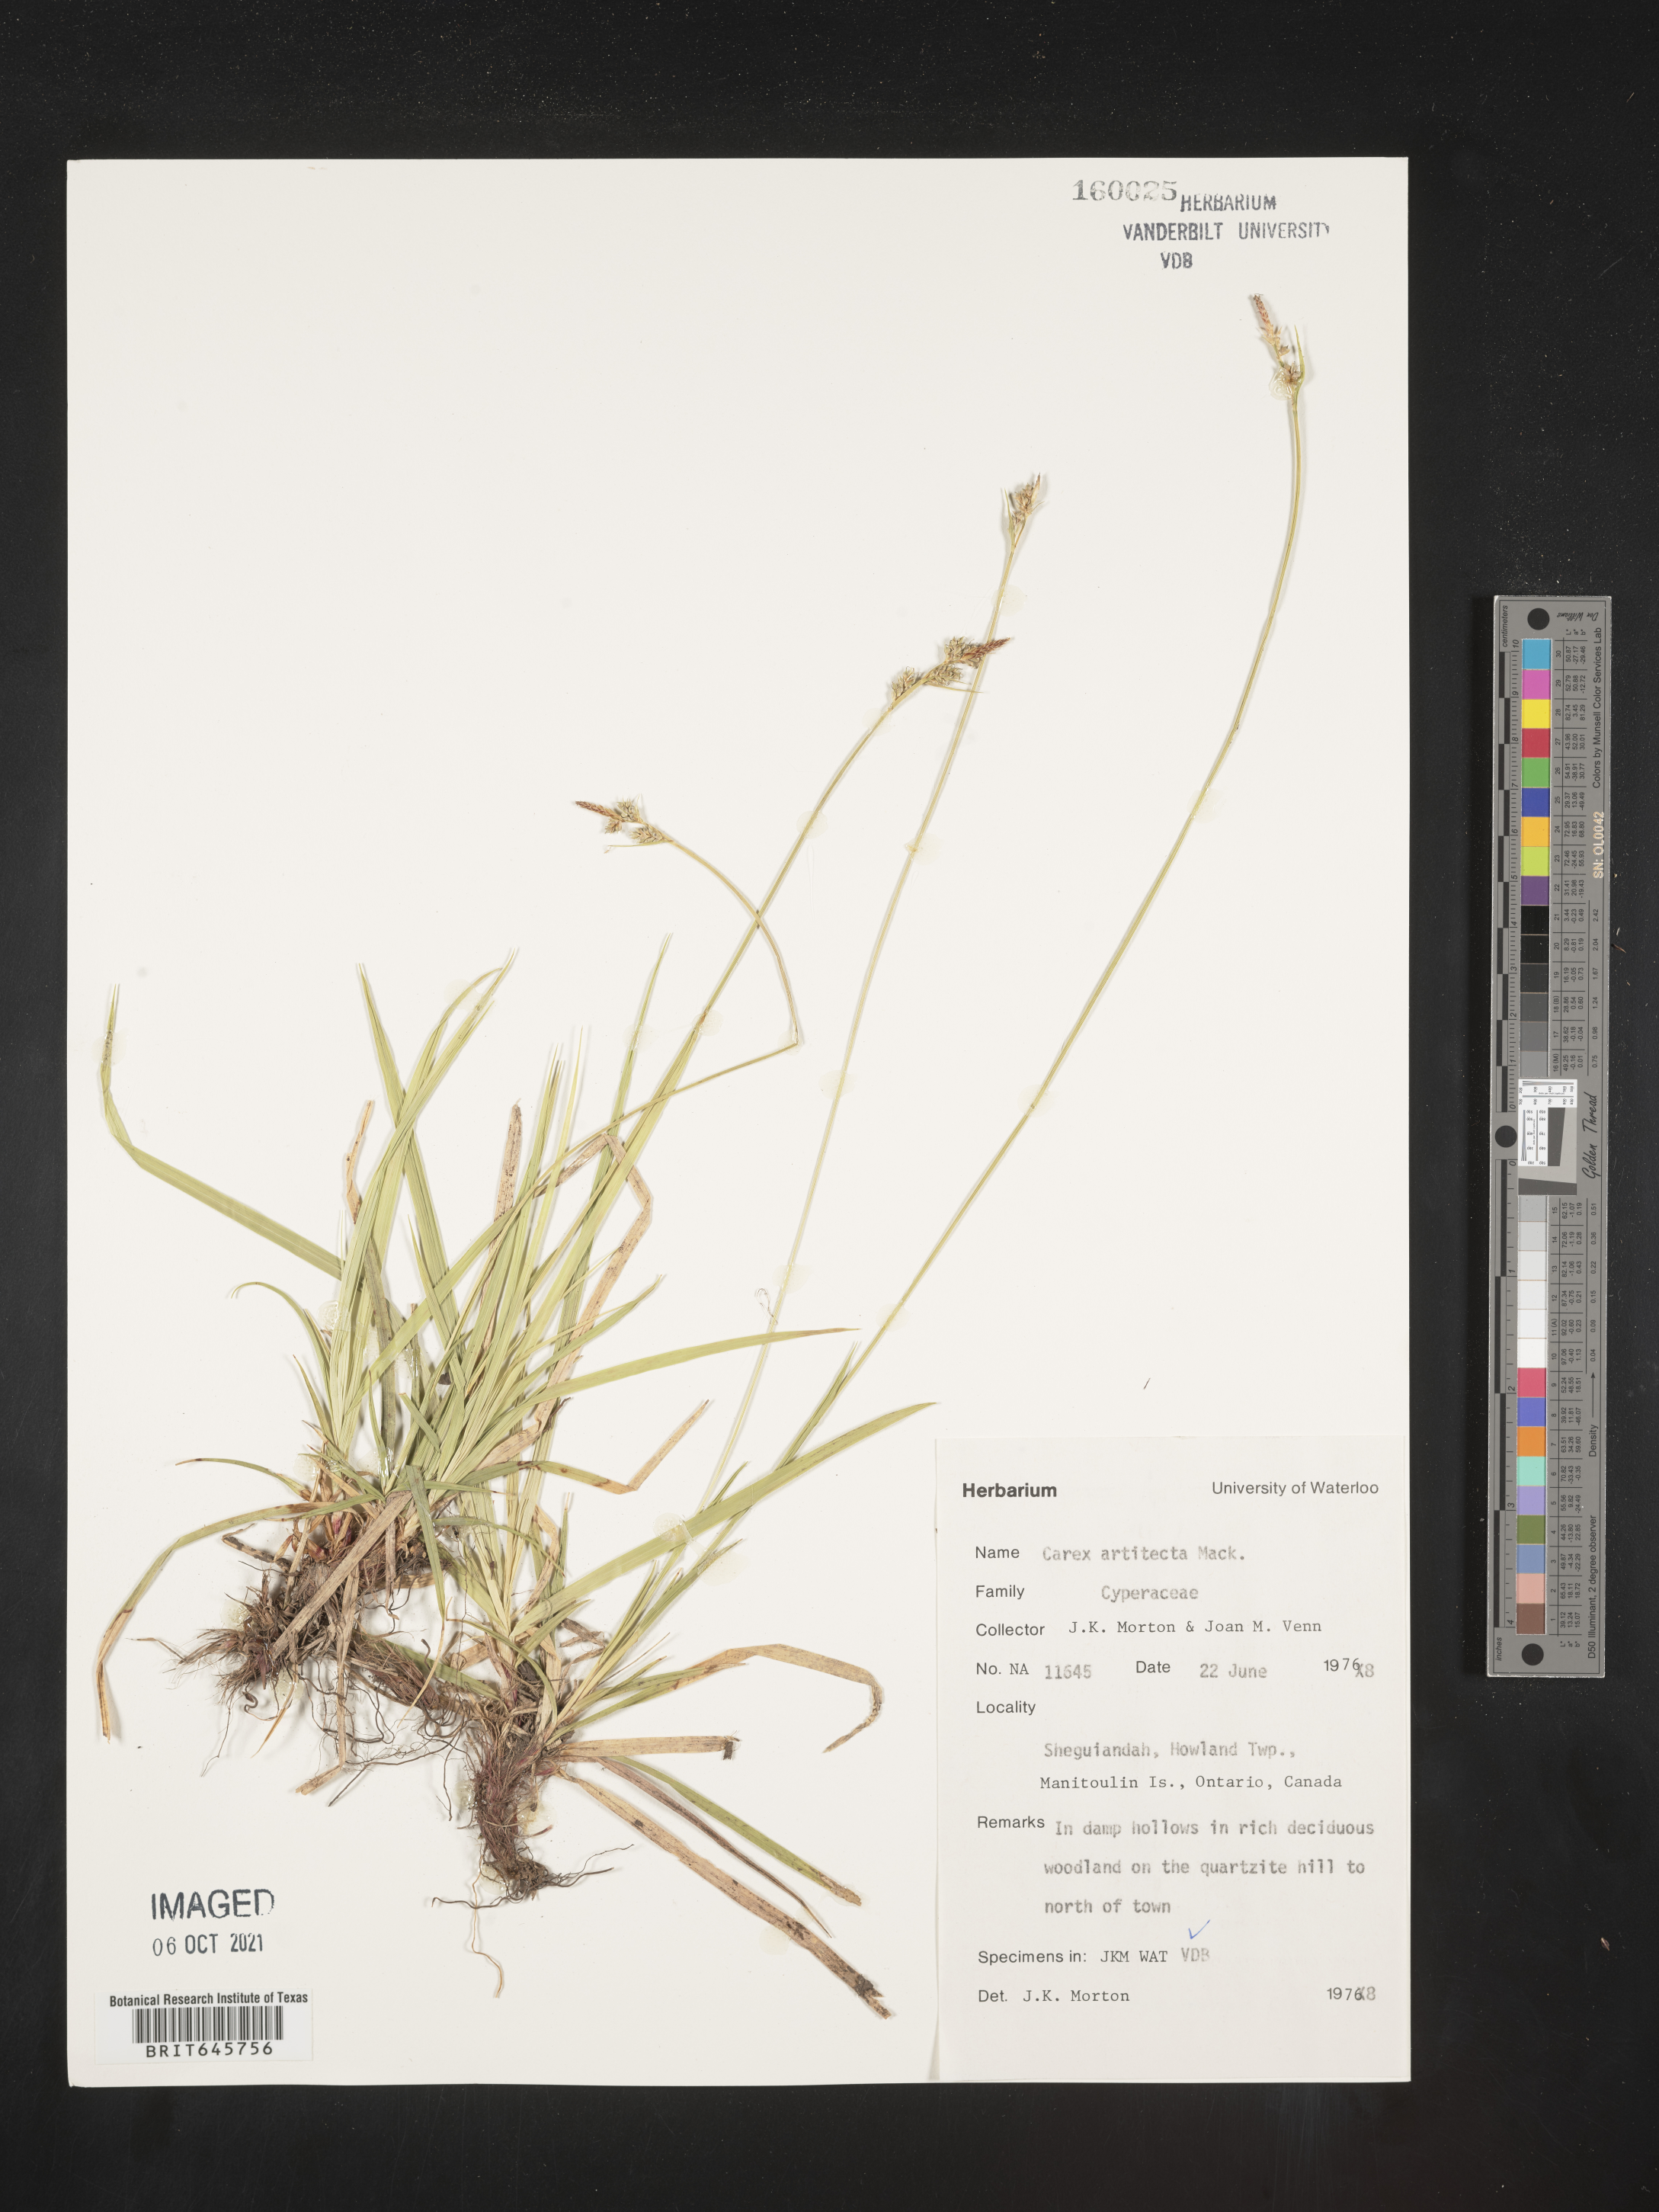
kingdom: Plantae
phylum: Tracheophyta
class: Liliopsida
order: Poales
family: Cyperaceae
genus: Carex
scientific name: Carex albicans
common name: Bellow-beaked sedge
